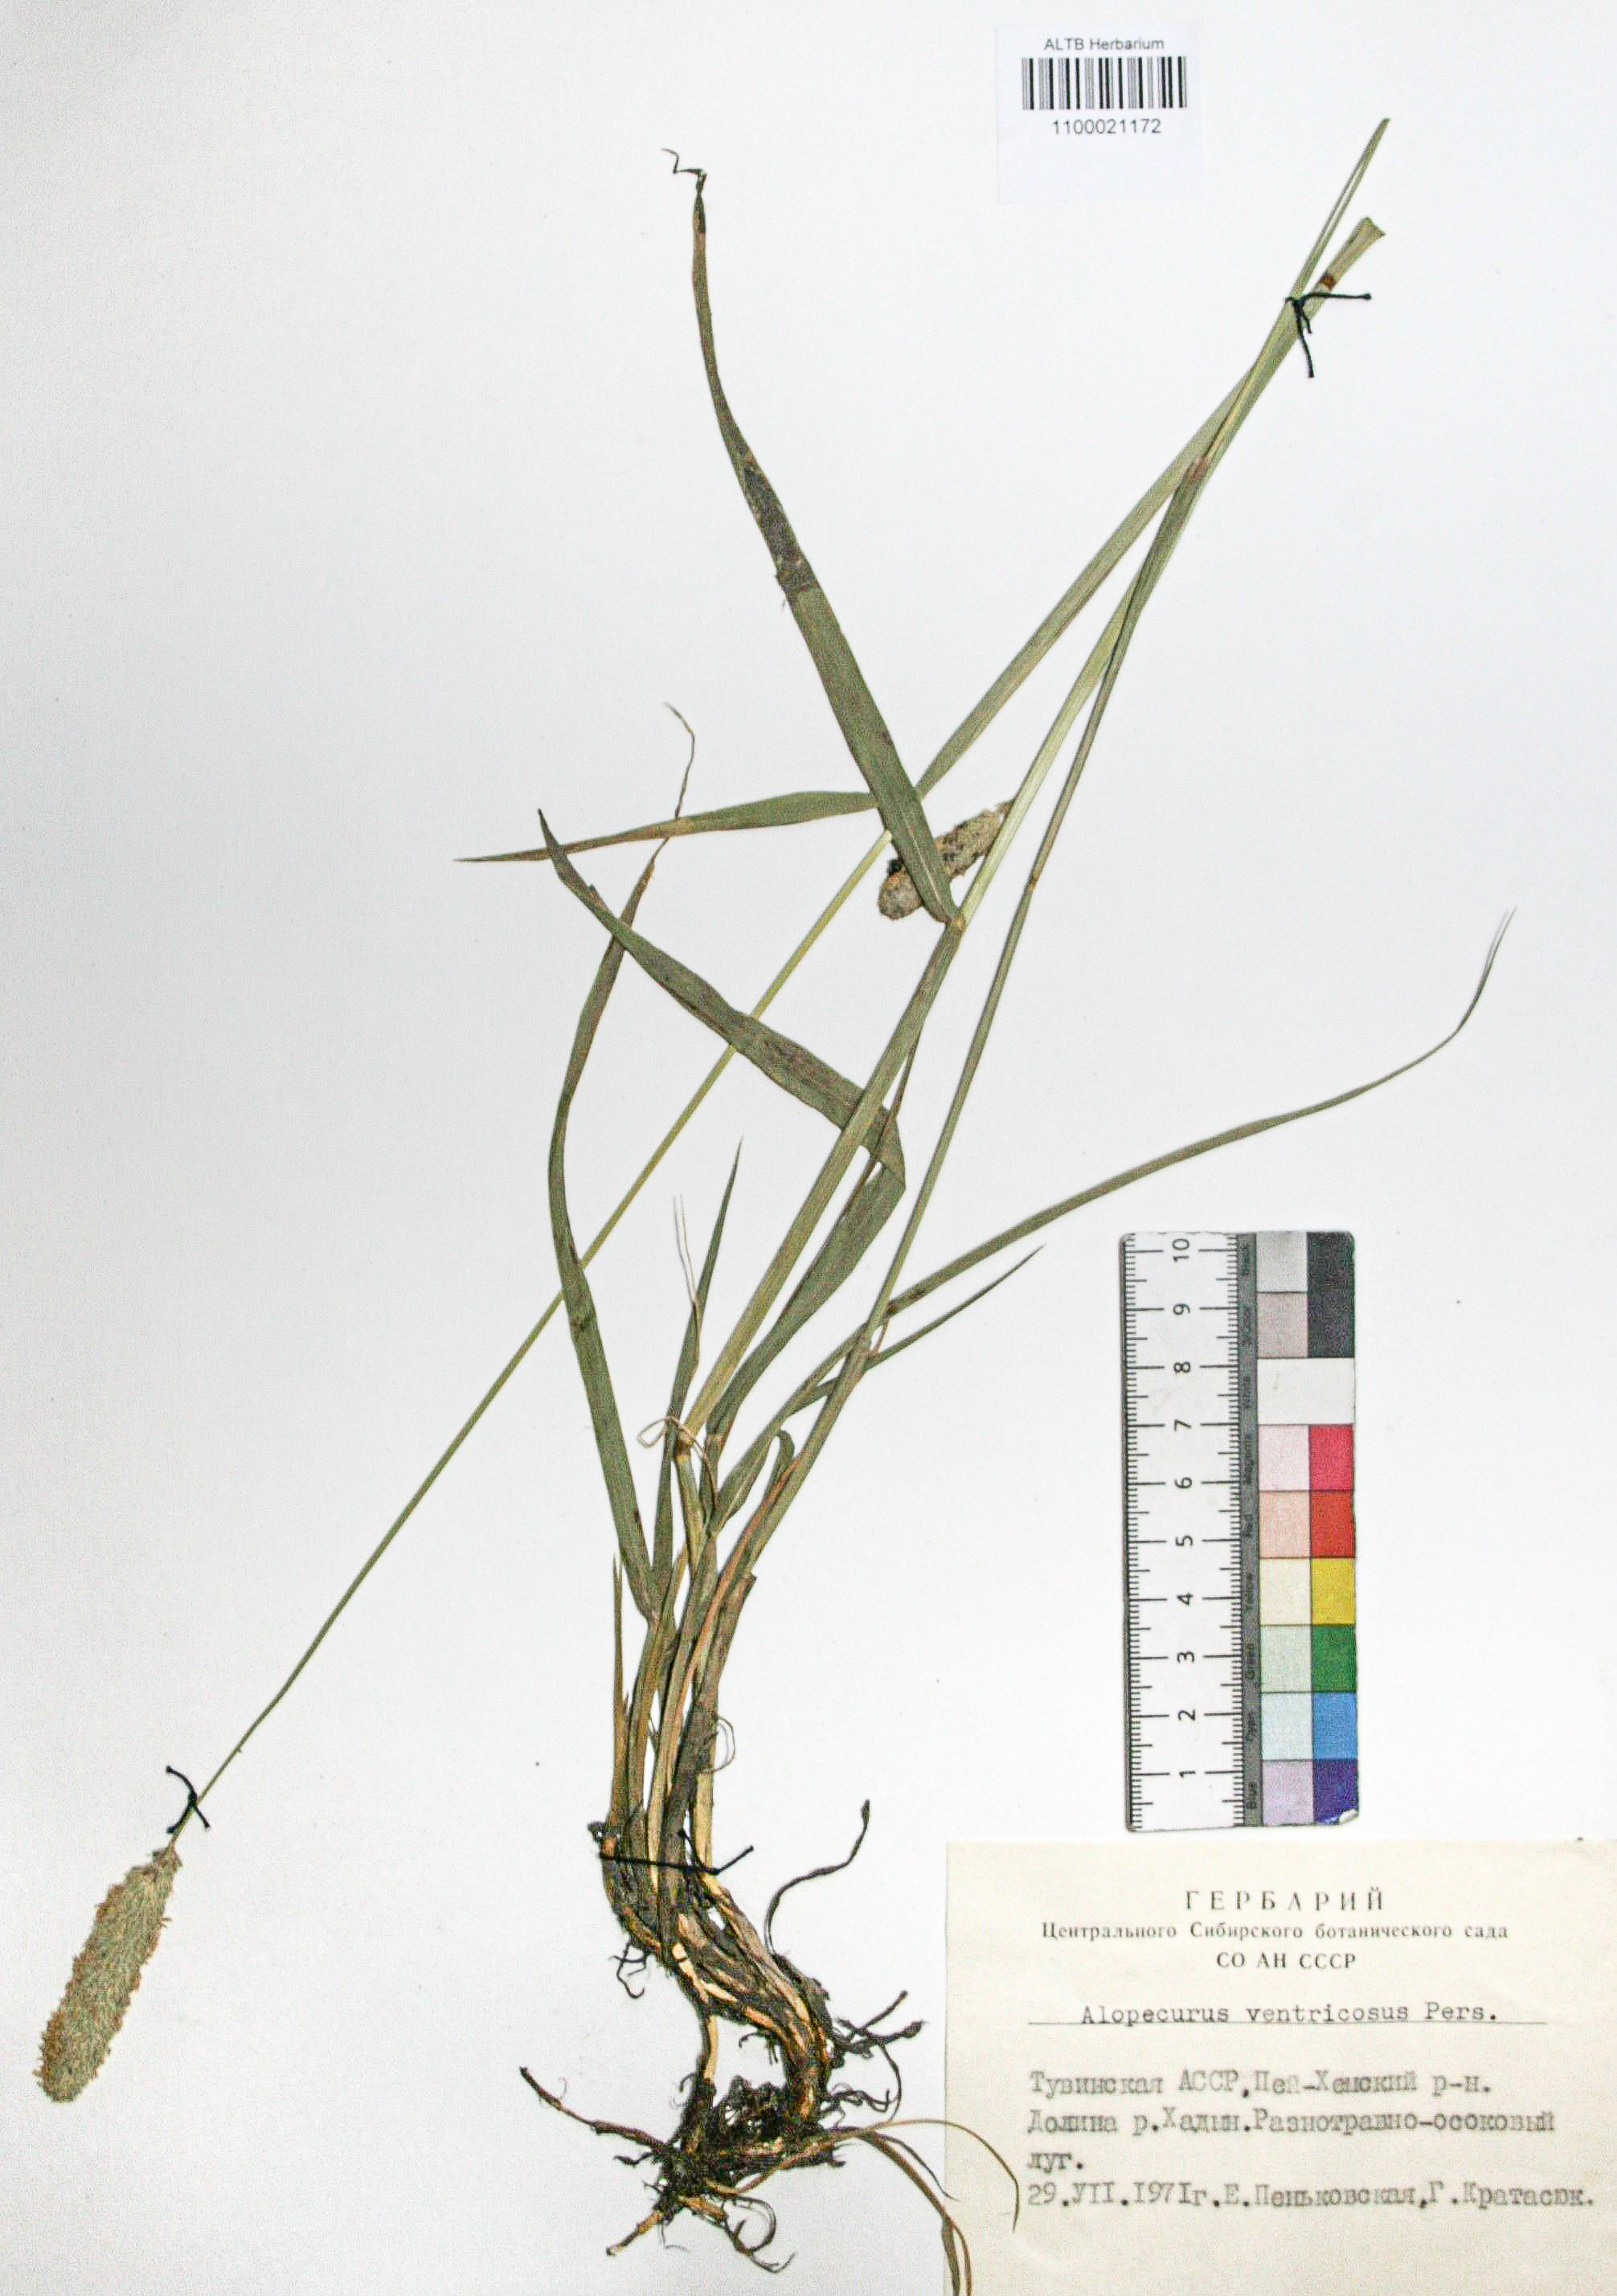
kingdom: Plantae
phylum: Tracheophyta
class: Liliopsida
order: Poales
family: Poaceae
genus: Alopecurus
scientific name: Alopecurus arundinaceus
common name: Creeping meadow foxtail
